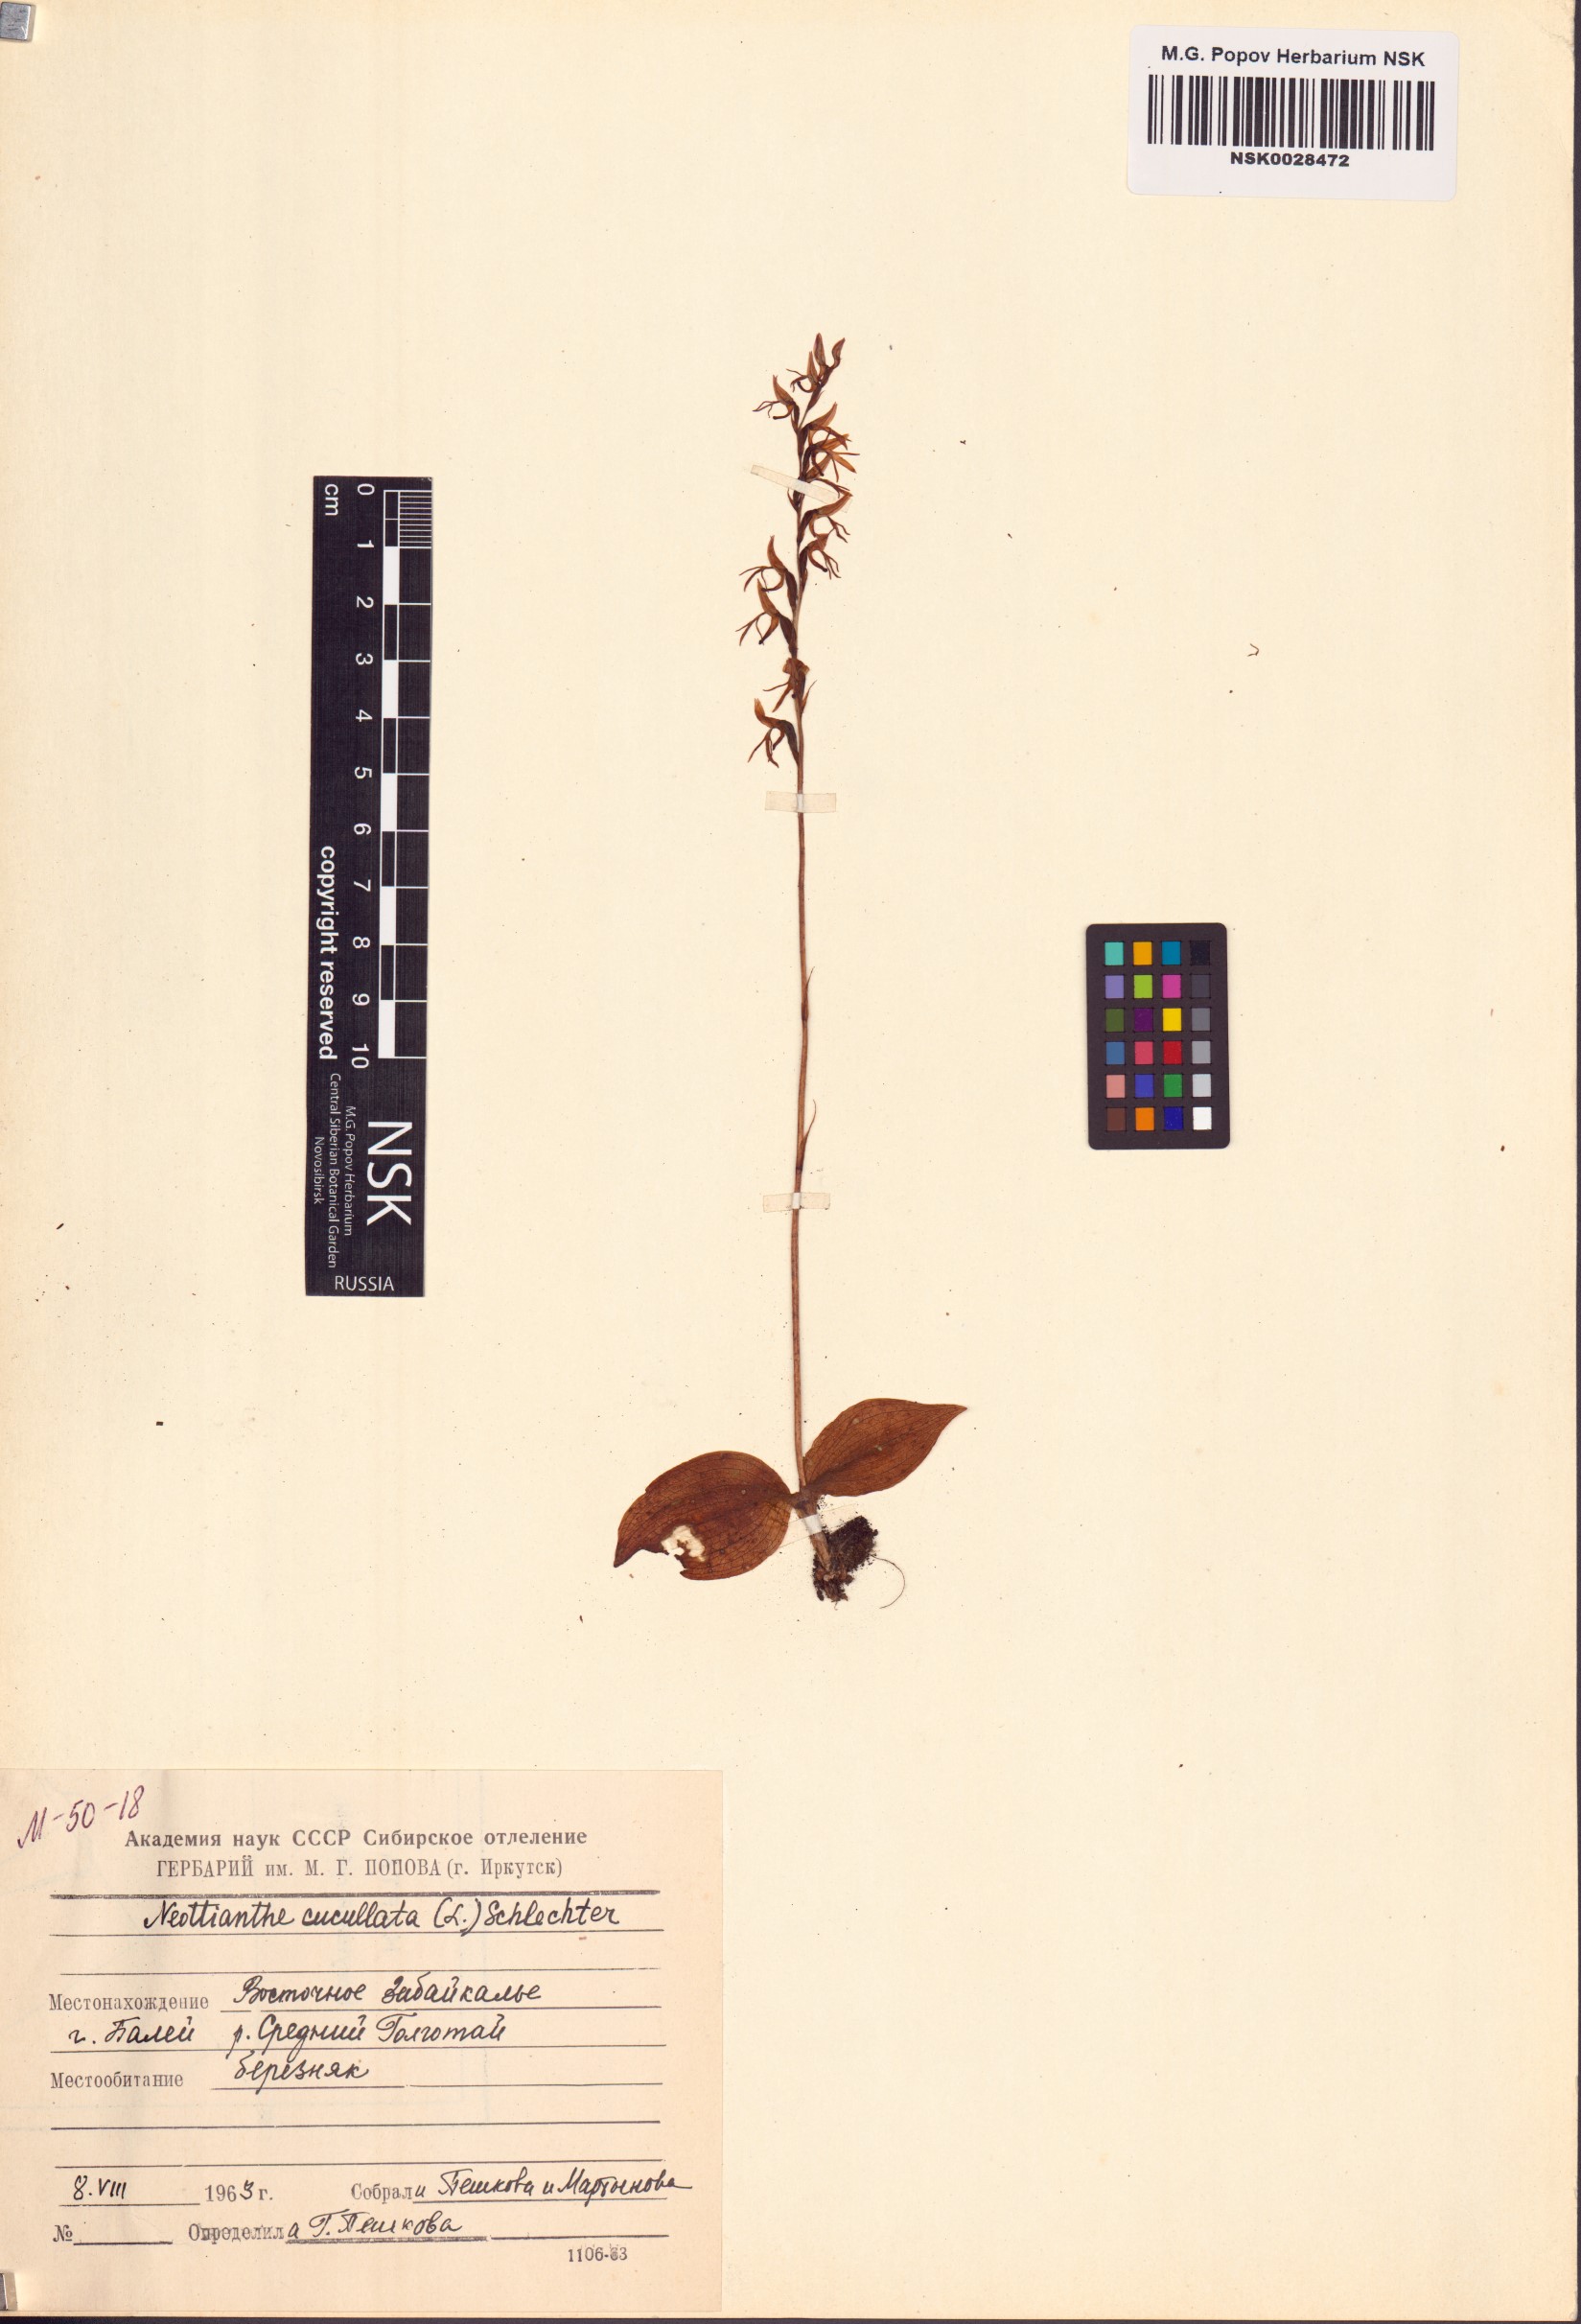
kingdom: Plantae
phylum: Tracheophyta
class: Liliopsida
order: Asparagales
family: Orchidaceae
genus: Hemipilia
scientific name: Hemipilia cucullata
